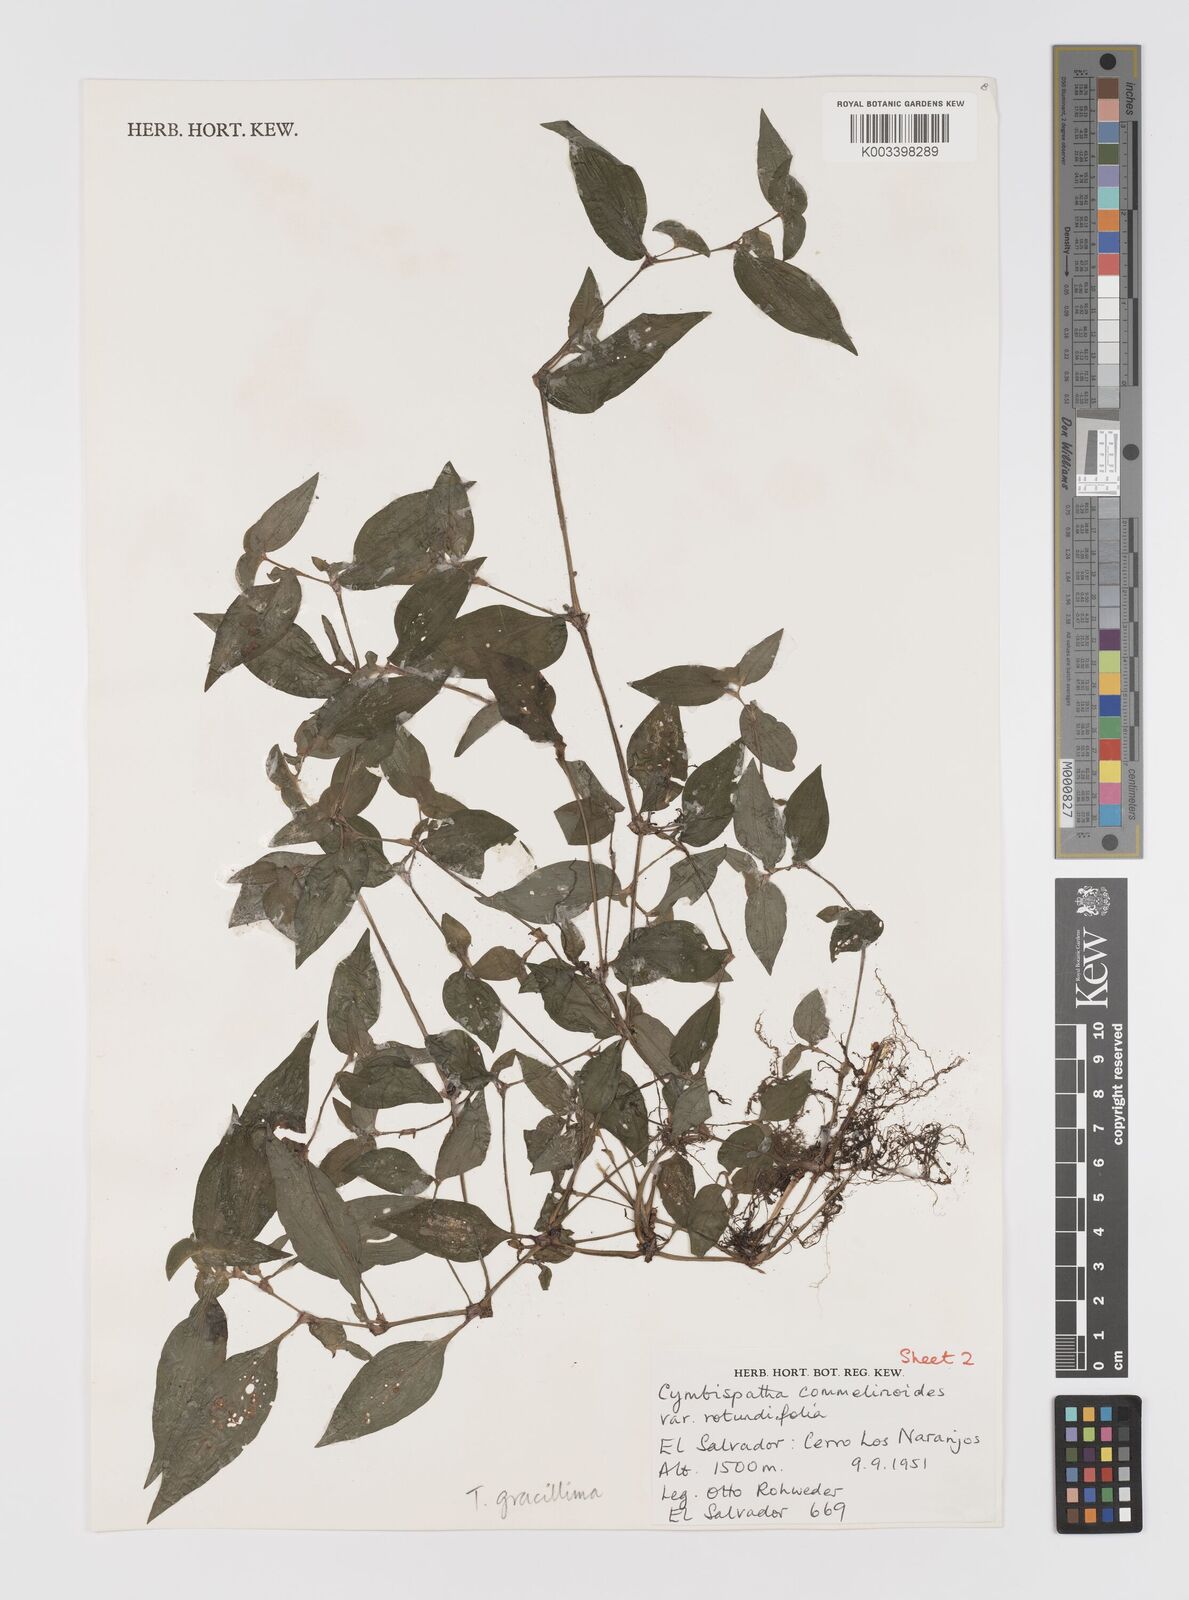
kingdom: Plantae
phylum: Tracheophyta
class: Liliopsida
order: Commelinales
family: Commelinaceae
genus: Tradescantia
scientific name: Tradescantia gracillima
